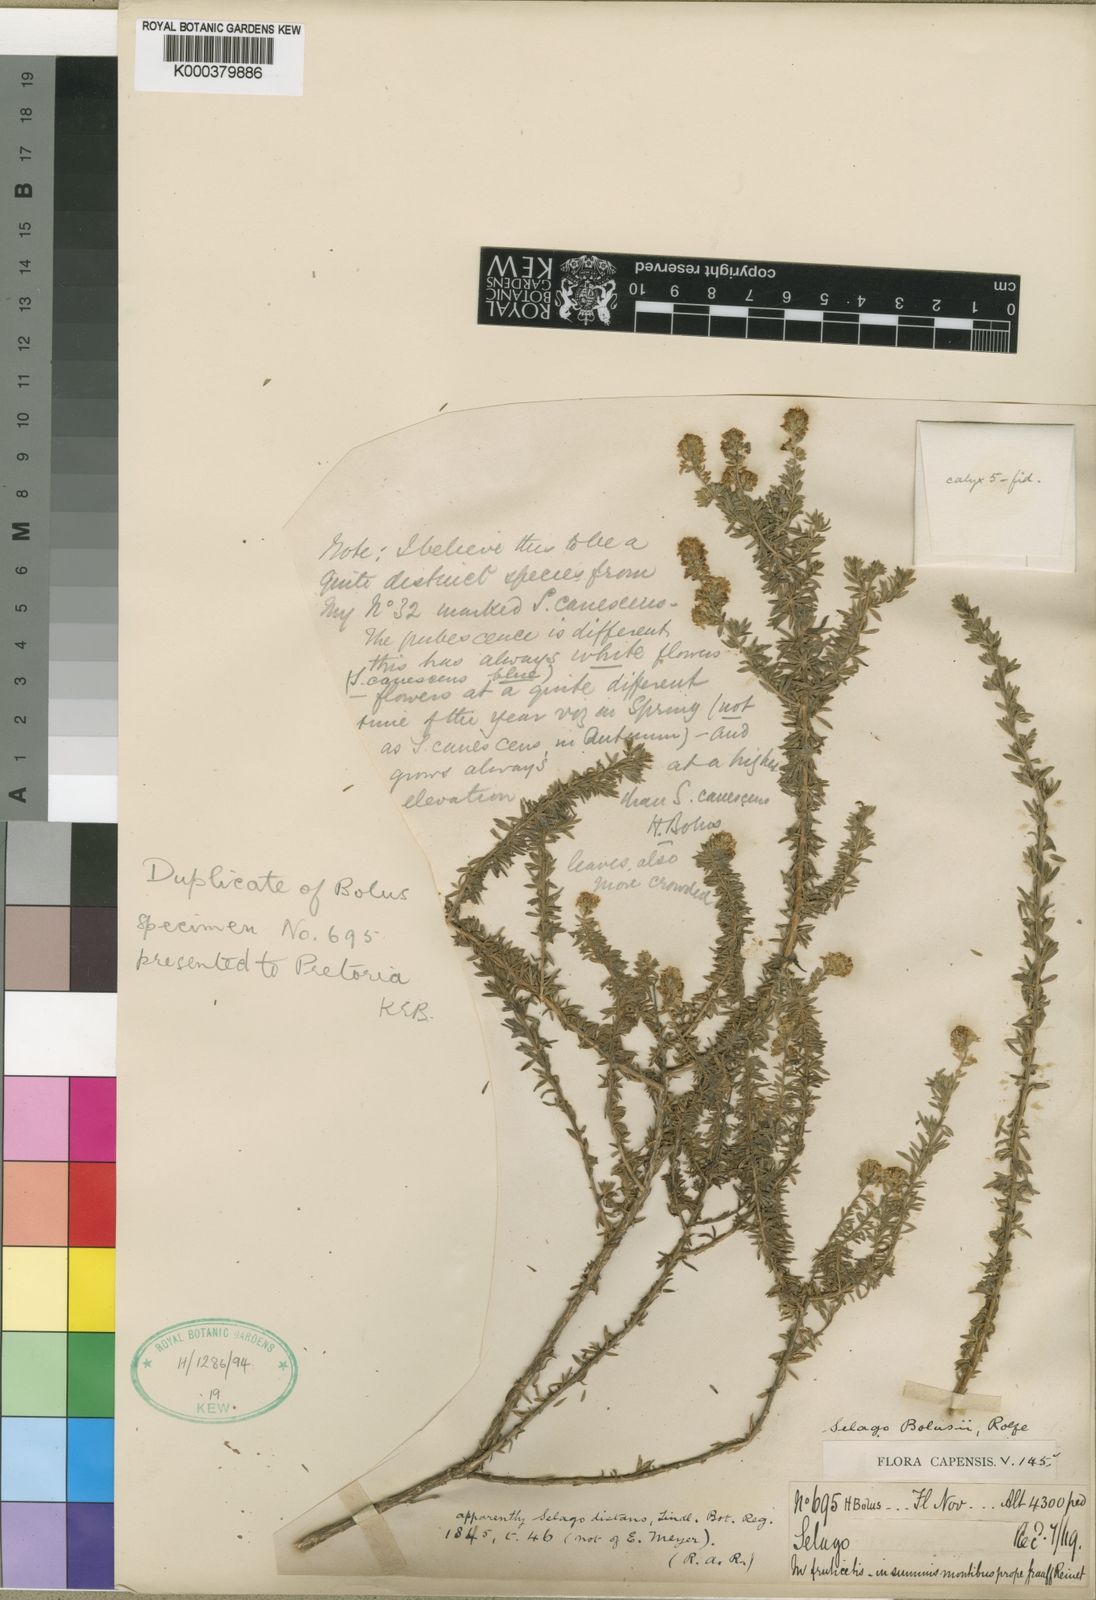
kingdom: Plantae
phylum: Tracheophyta
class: Magnoliopsida
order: Lamiales
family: Scrophulariaceae
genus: Selago
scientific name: Selago bolusii
